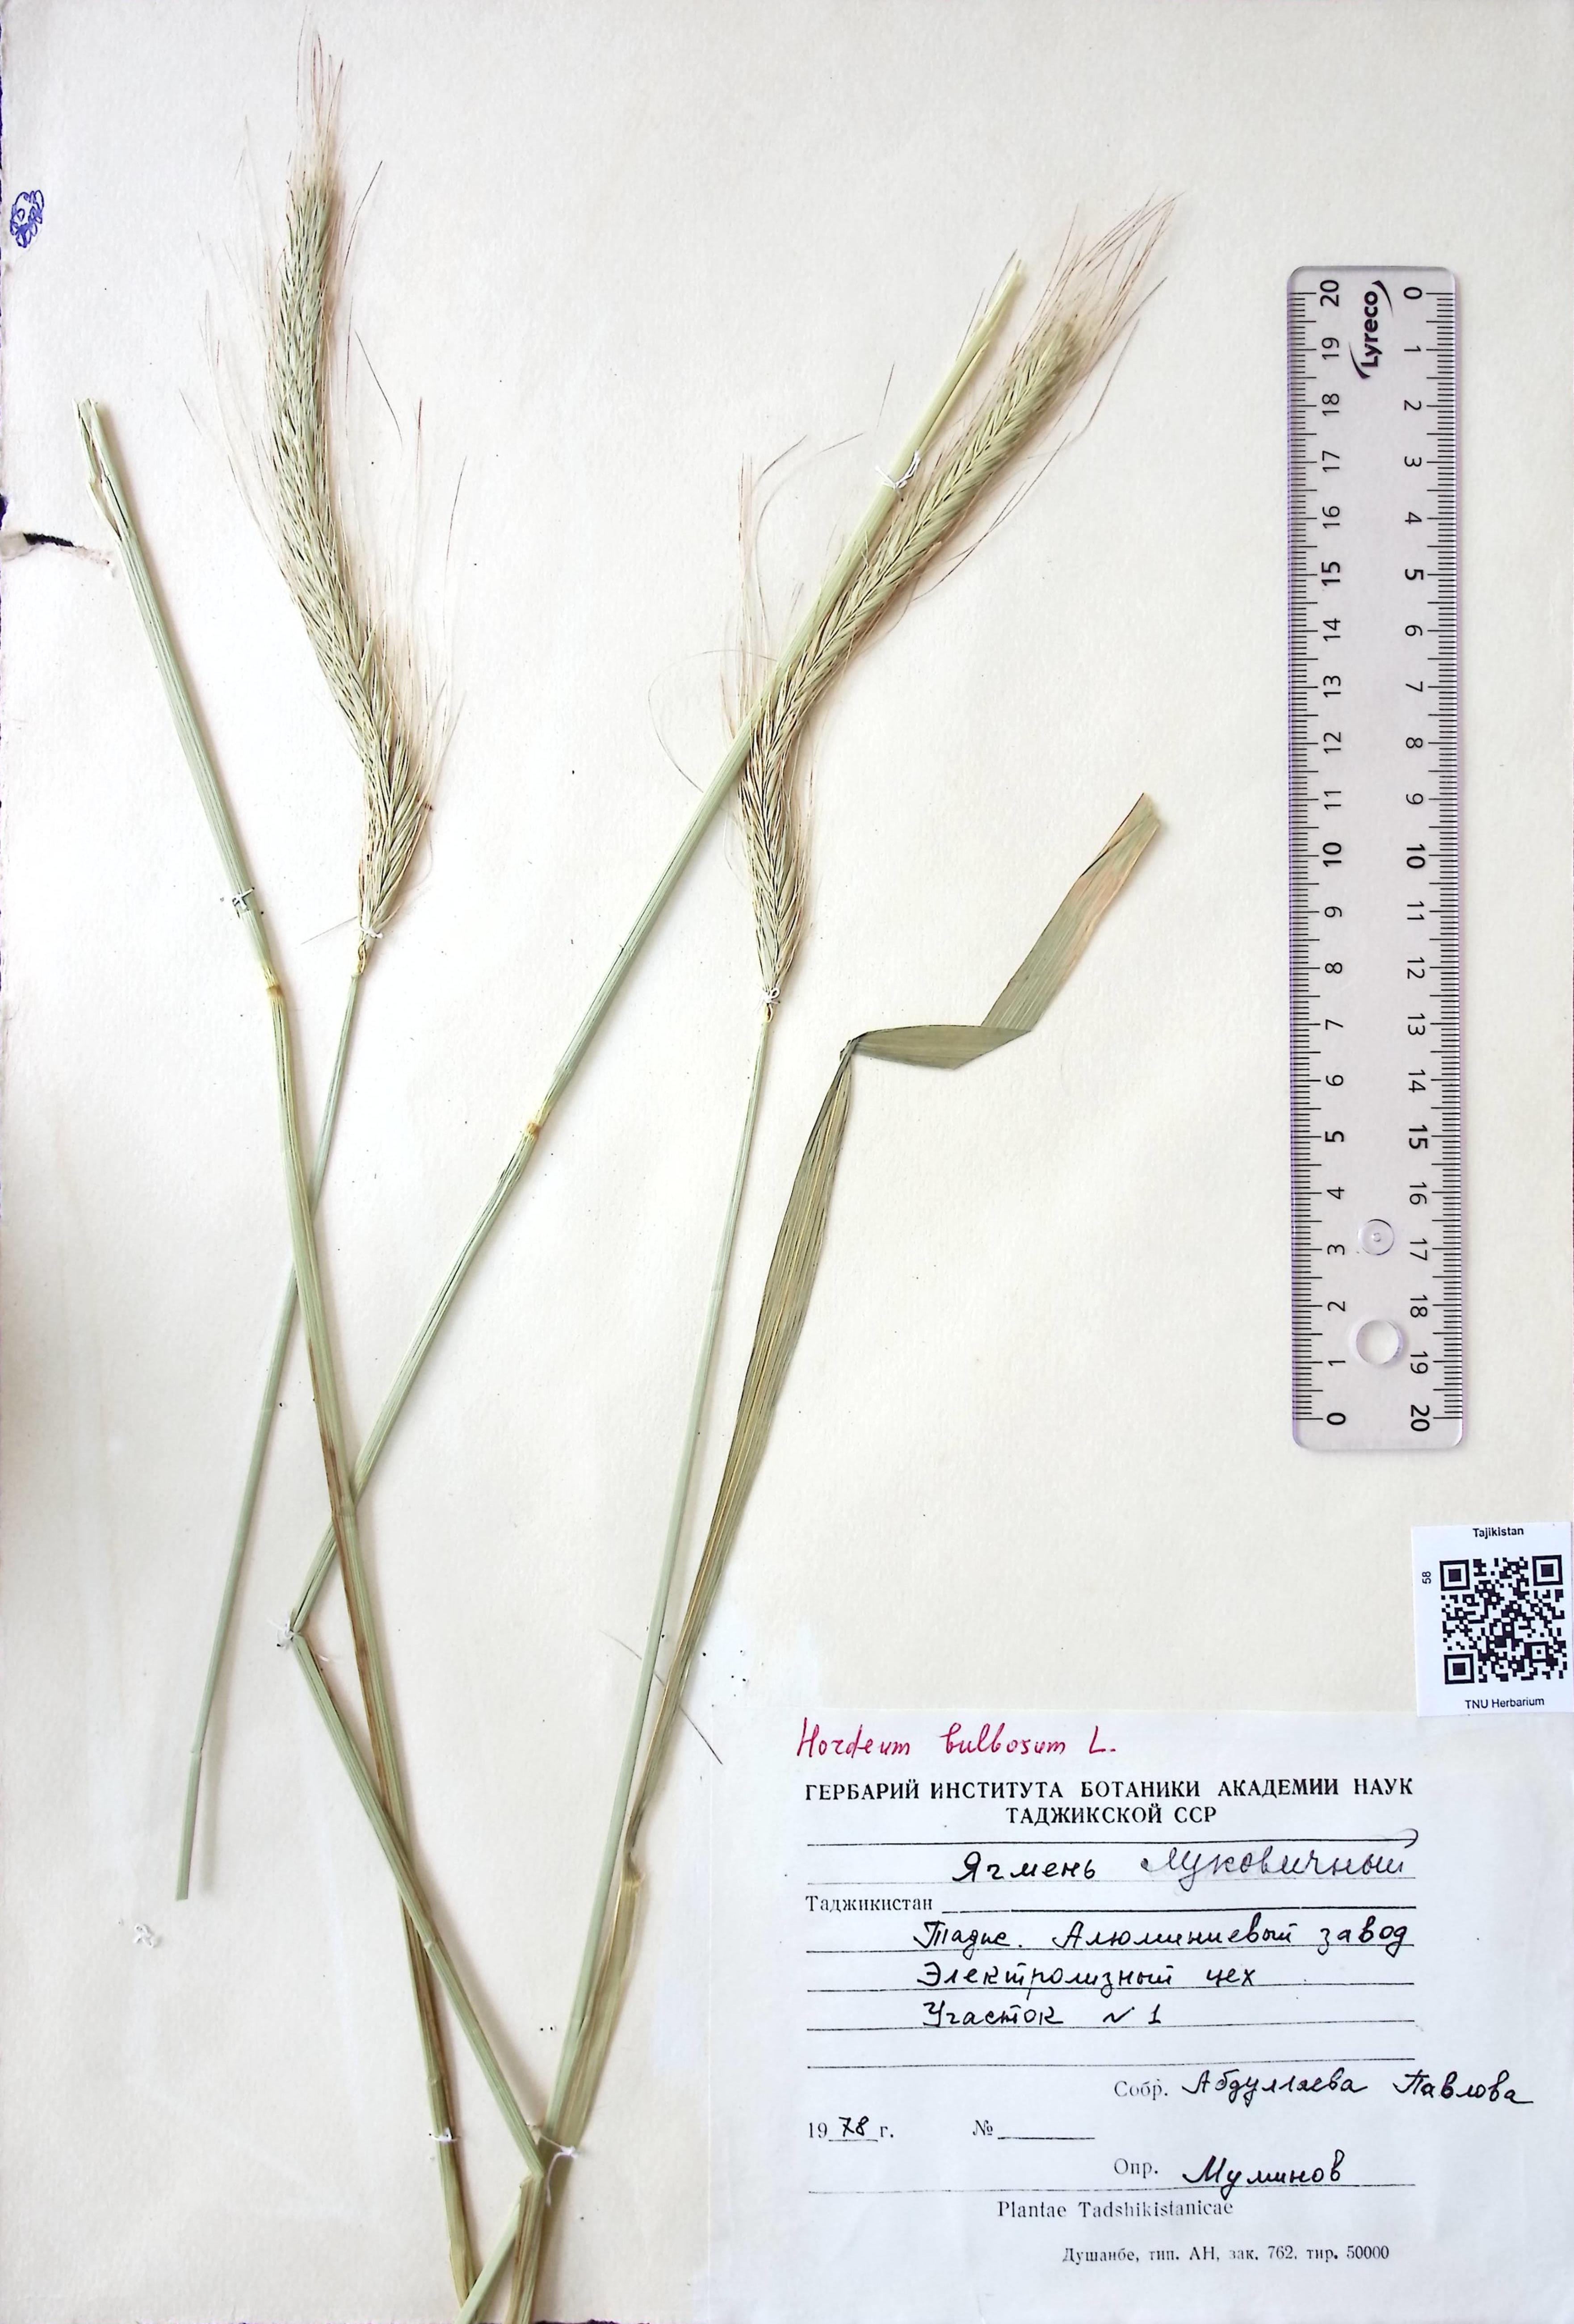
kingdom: Plantae
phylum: Tracheophyta
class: Liliopsida
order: Poales
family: Poaceae
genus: Hordeum
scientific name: Hordeum bulbosum
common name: Bulbous barley
